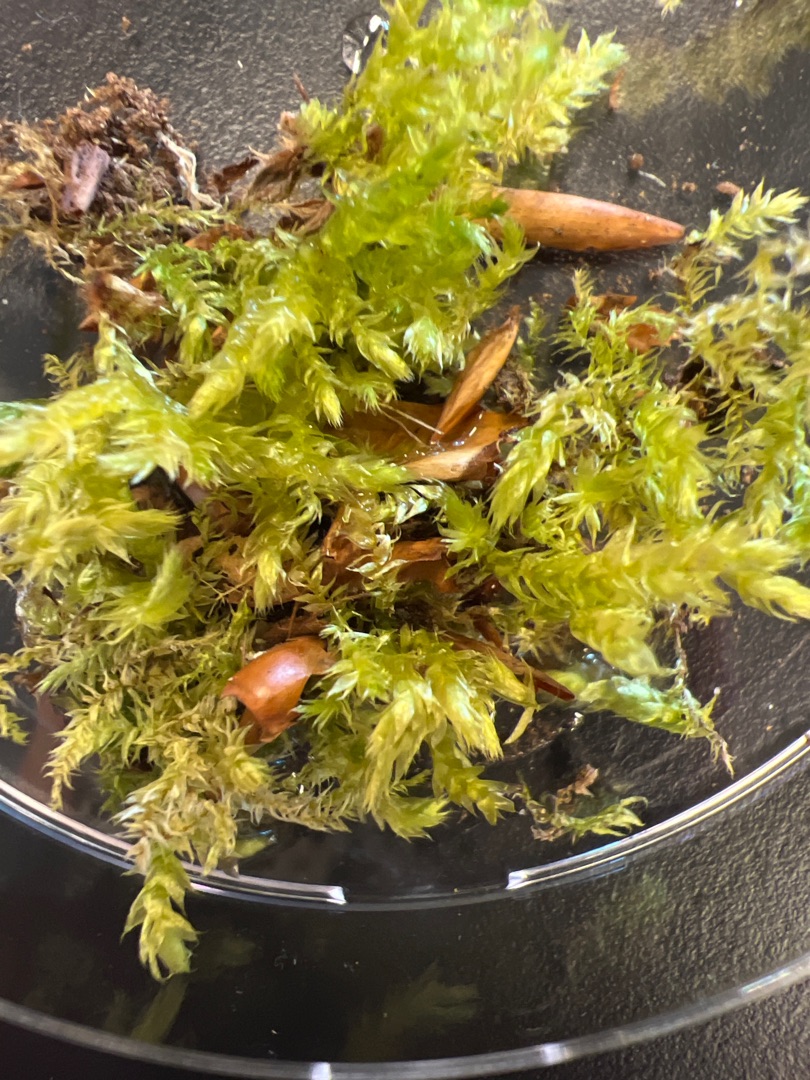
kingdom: Plantae
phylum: Bryophyta
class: Bryopsida
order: Hypnales
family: Brachytheciaceae
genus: Brachythecium
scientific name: Brachythecium rutabulum
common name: Almindelig kortkapsel
